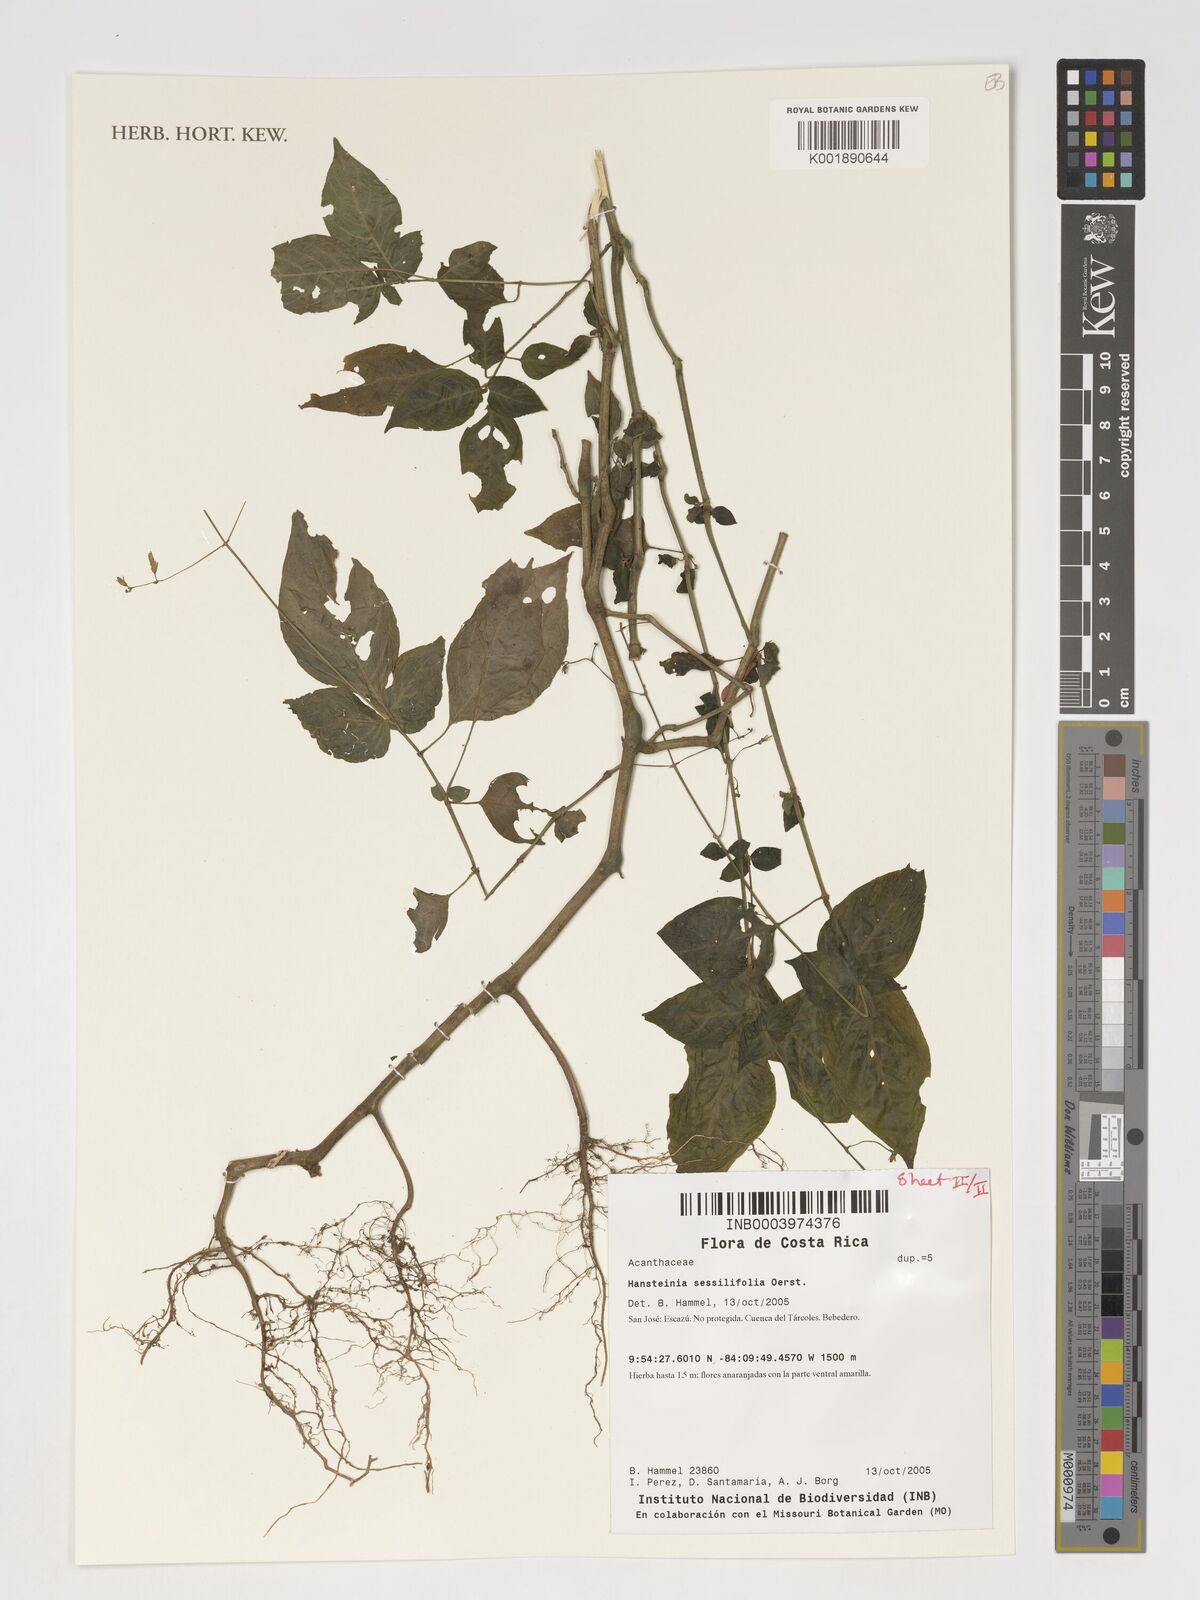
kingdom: Plantae
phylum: Tracheophyta
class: Magnoliopsida
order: Lamiales
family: Acanthaceae
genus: Stenostephanus
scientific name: Stenostephanus sessilifolius
